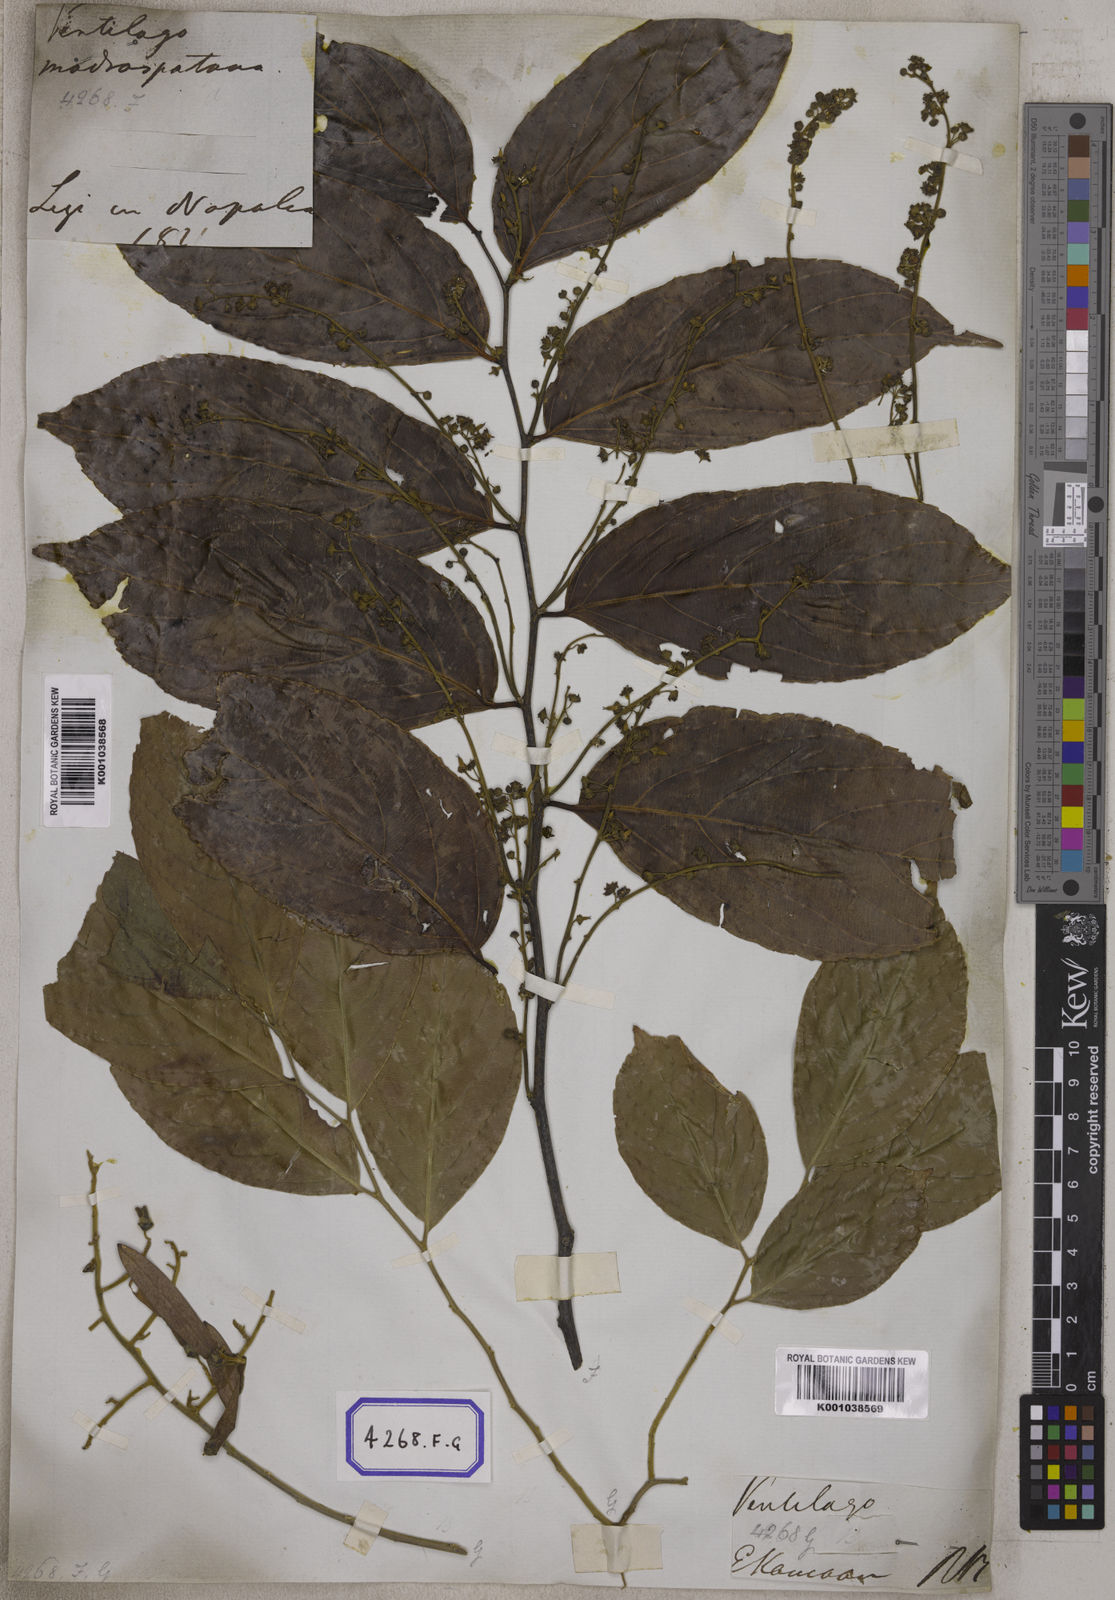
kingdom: Plantae
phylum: Tracheophyta
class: Magnoliopsida
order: Rosales
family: Rhamnaceae
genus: Ventilago
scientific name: Ventilago madraspatana
